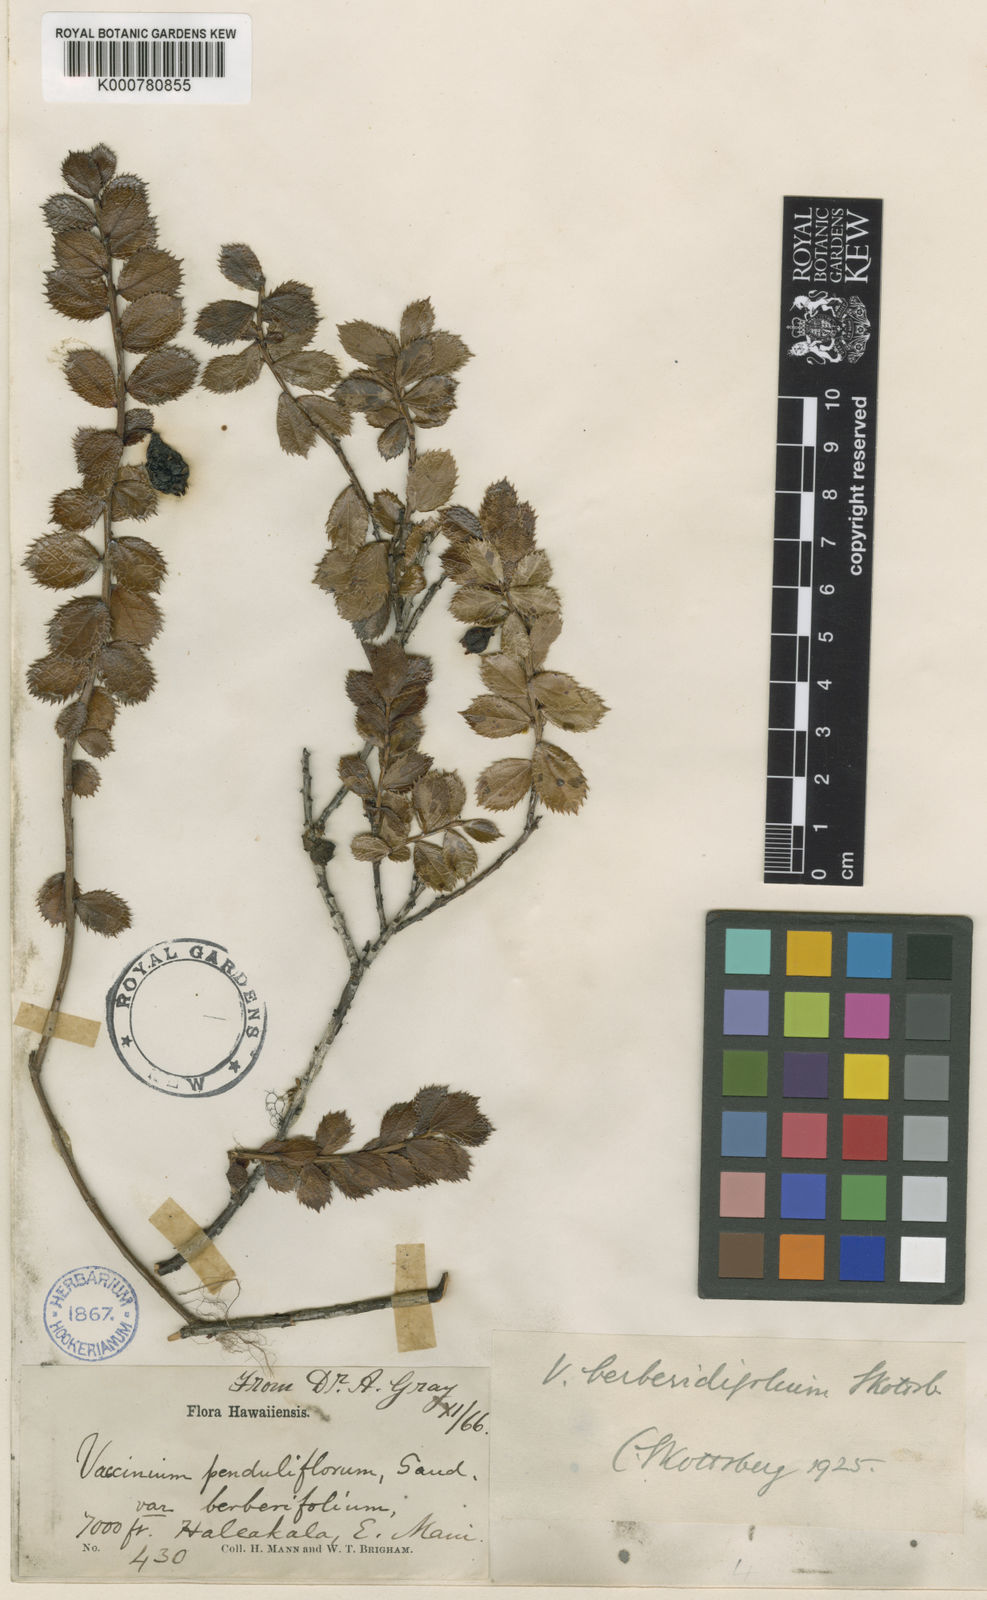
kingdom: Plantae
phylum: Tracheophyta
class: Magnoliopsida
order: Ericales
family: Ericaceae
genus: Vaccinium
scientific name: Vaccinium reticulatum
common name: Ohelo
